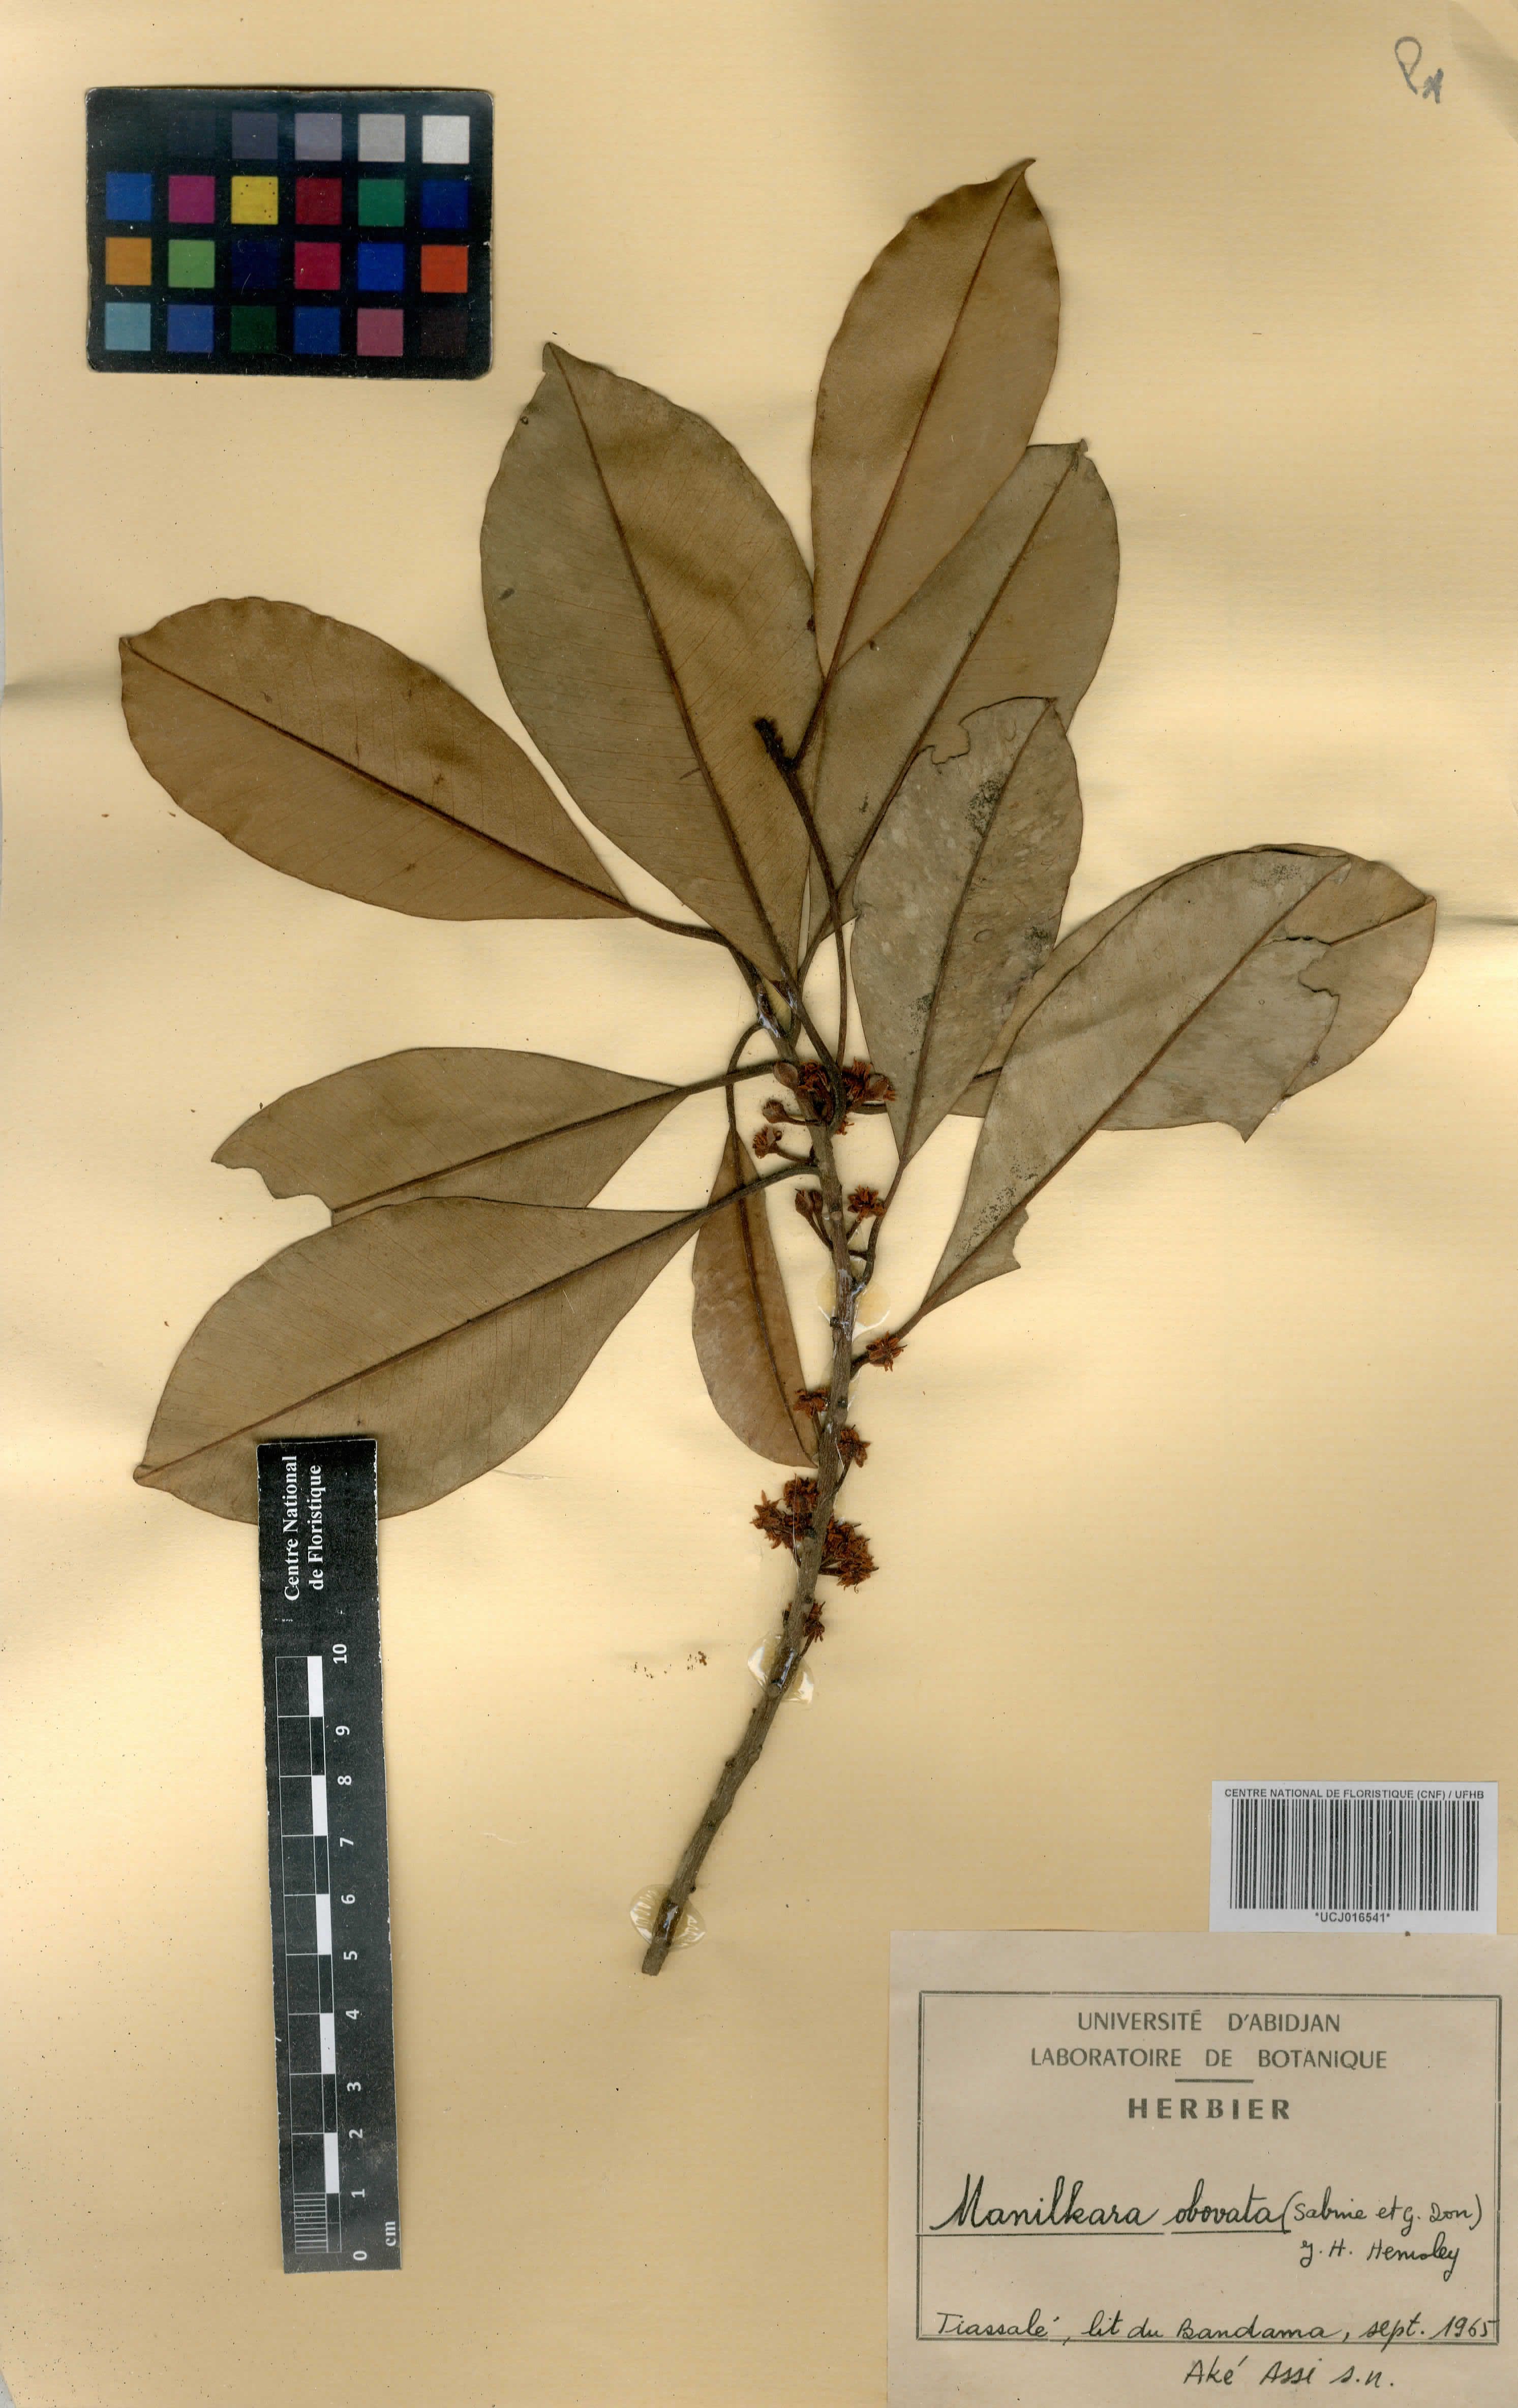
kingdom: Plantae
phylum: Tracheophyta
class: Magnoliopsida
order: Ericales
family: Sapotaceae
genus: Manilkara
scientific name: Manilkara obovata
